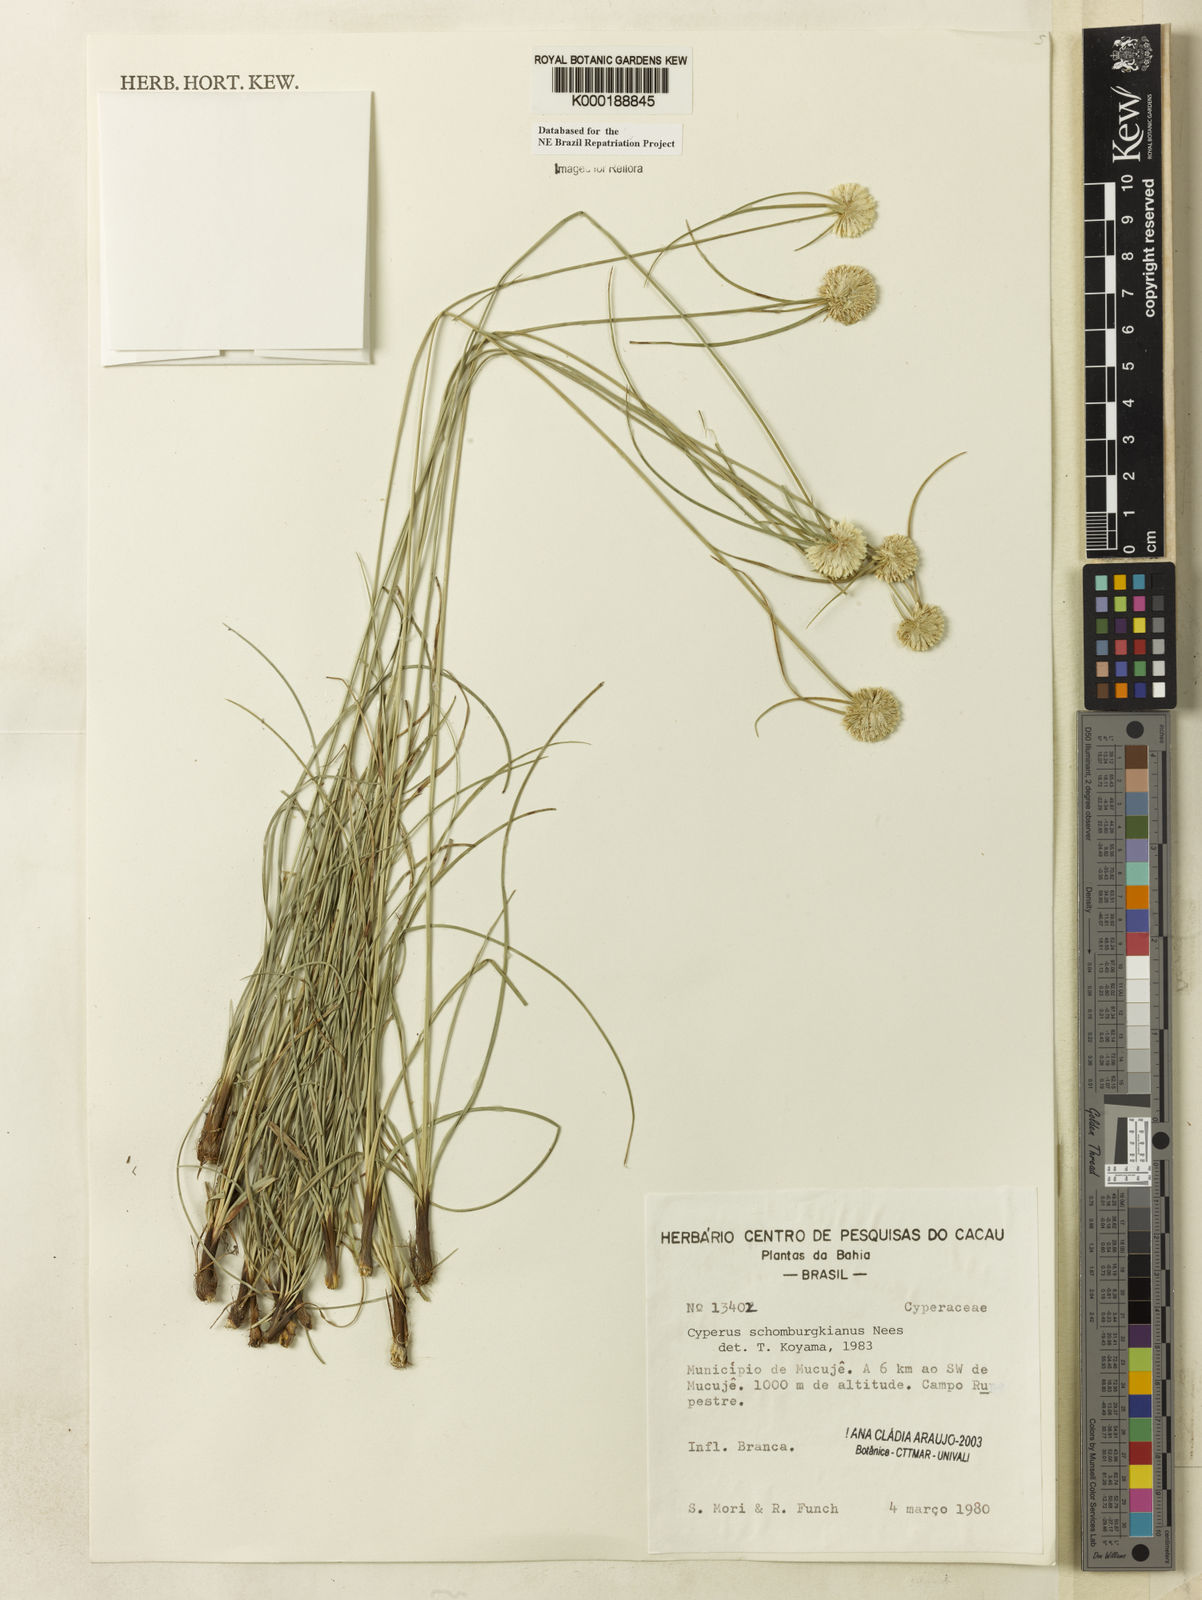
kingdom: Plantae
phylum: Tracheophyta
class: Liliopsida
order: Poales
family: Cyperaceae
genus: Cyperus
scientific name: Cyperus schomburgkianus
